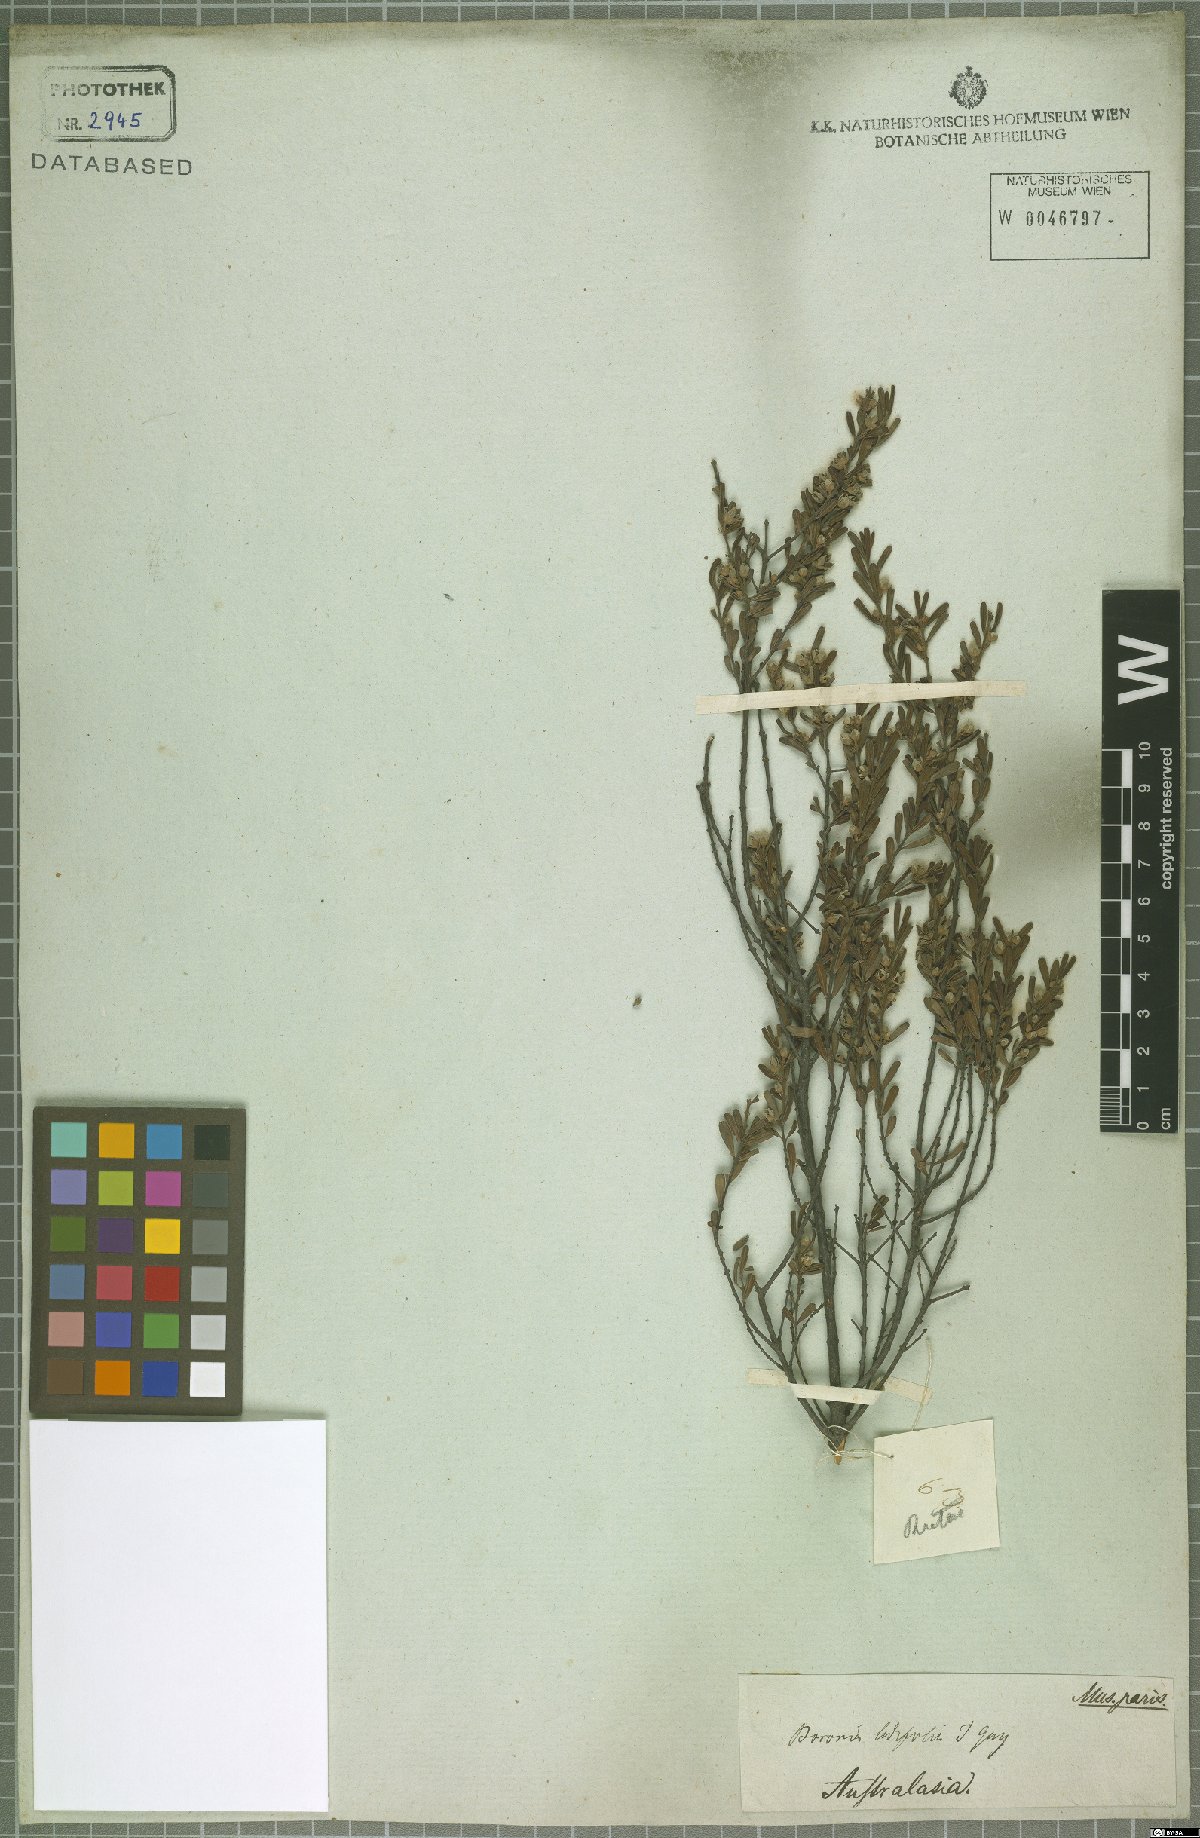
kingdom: Plantae
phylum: Tracheophyta
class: Magnoliopsida
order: Sapindales
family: Rutaceae
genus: Boronia
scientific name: Boronia ledifolia
